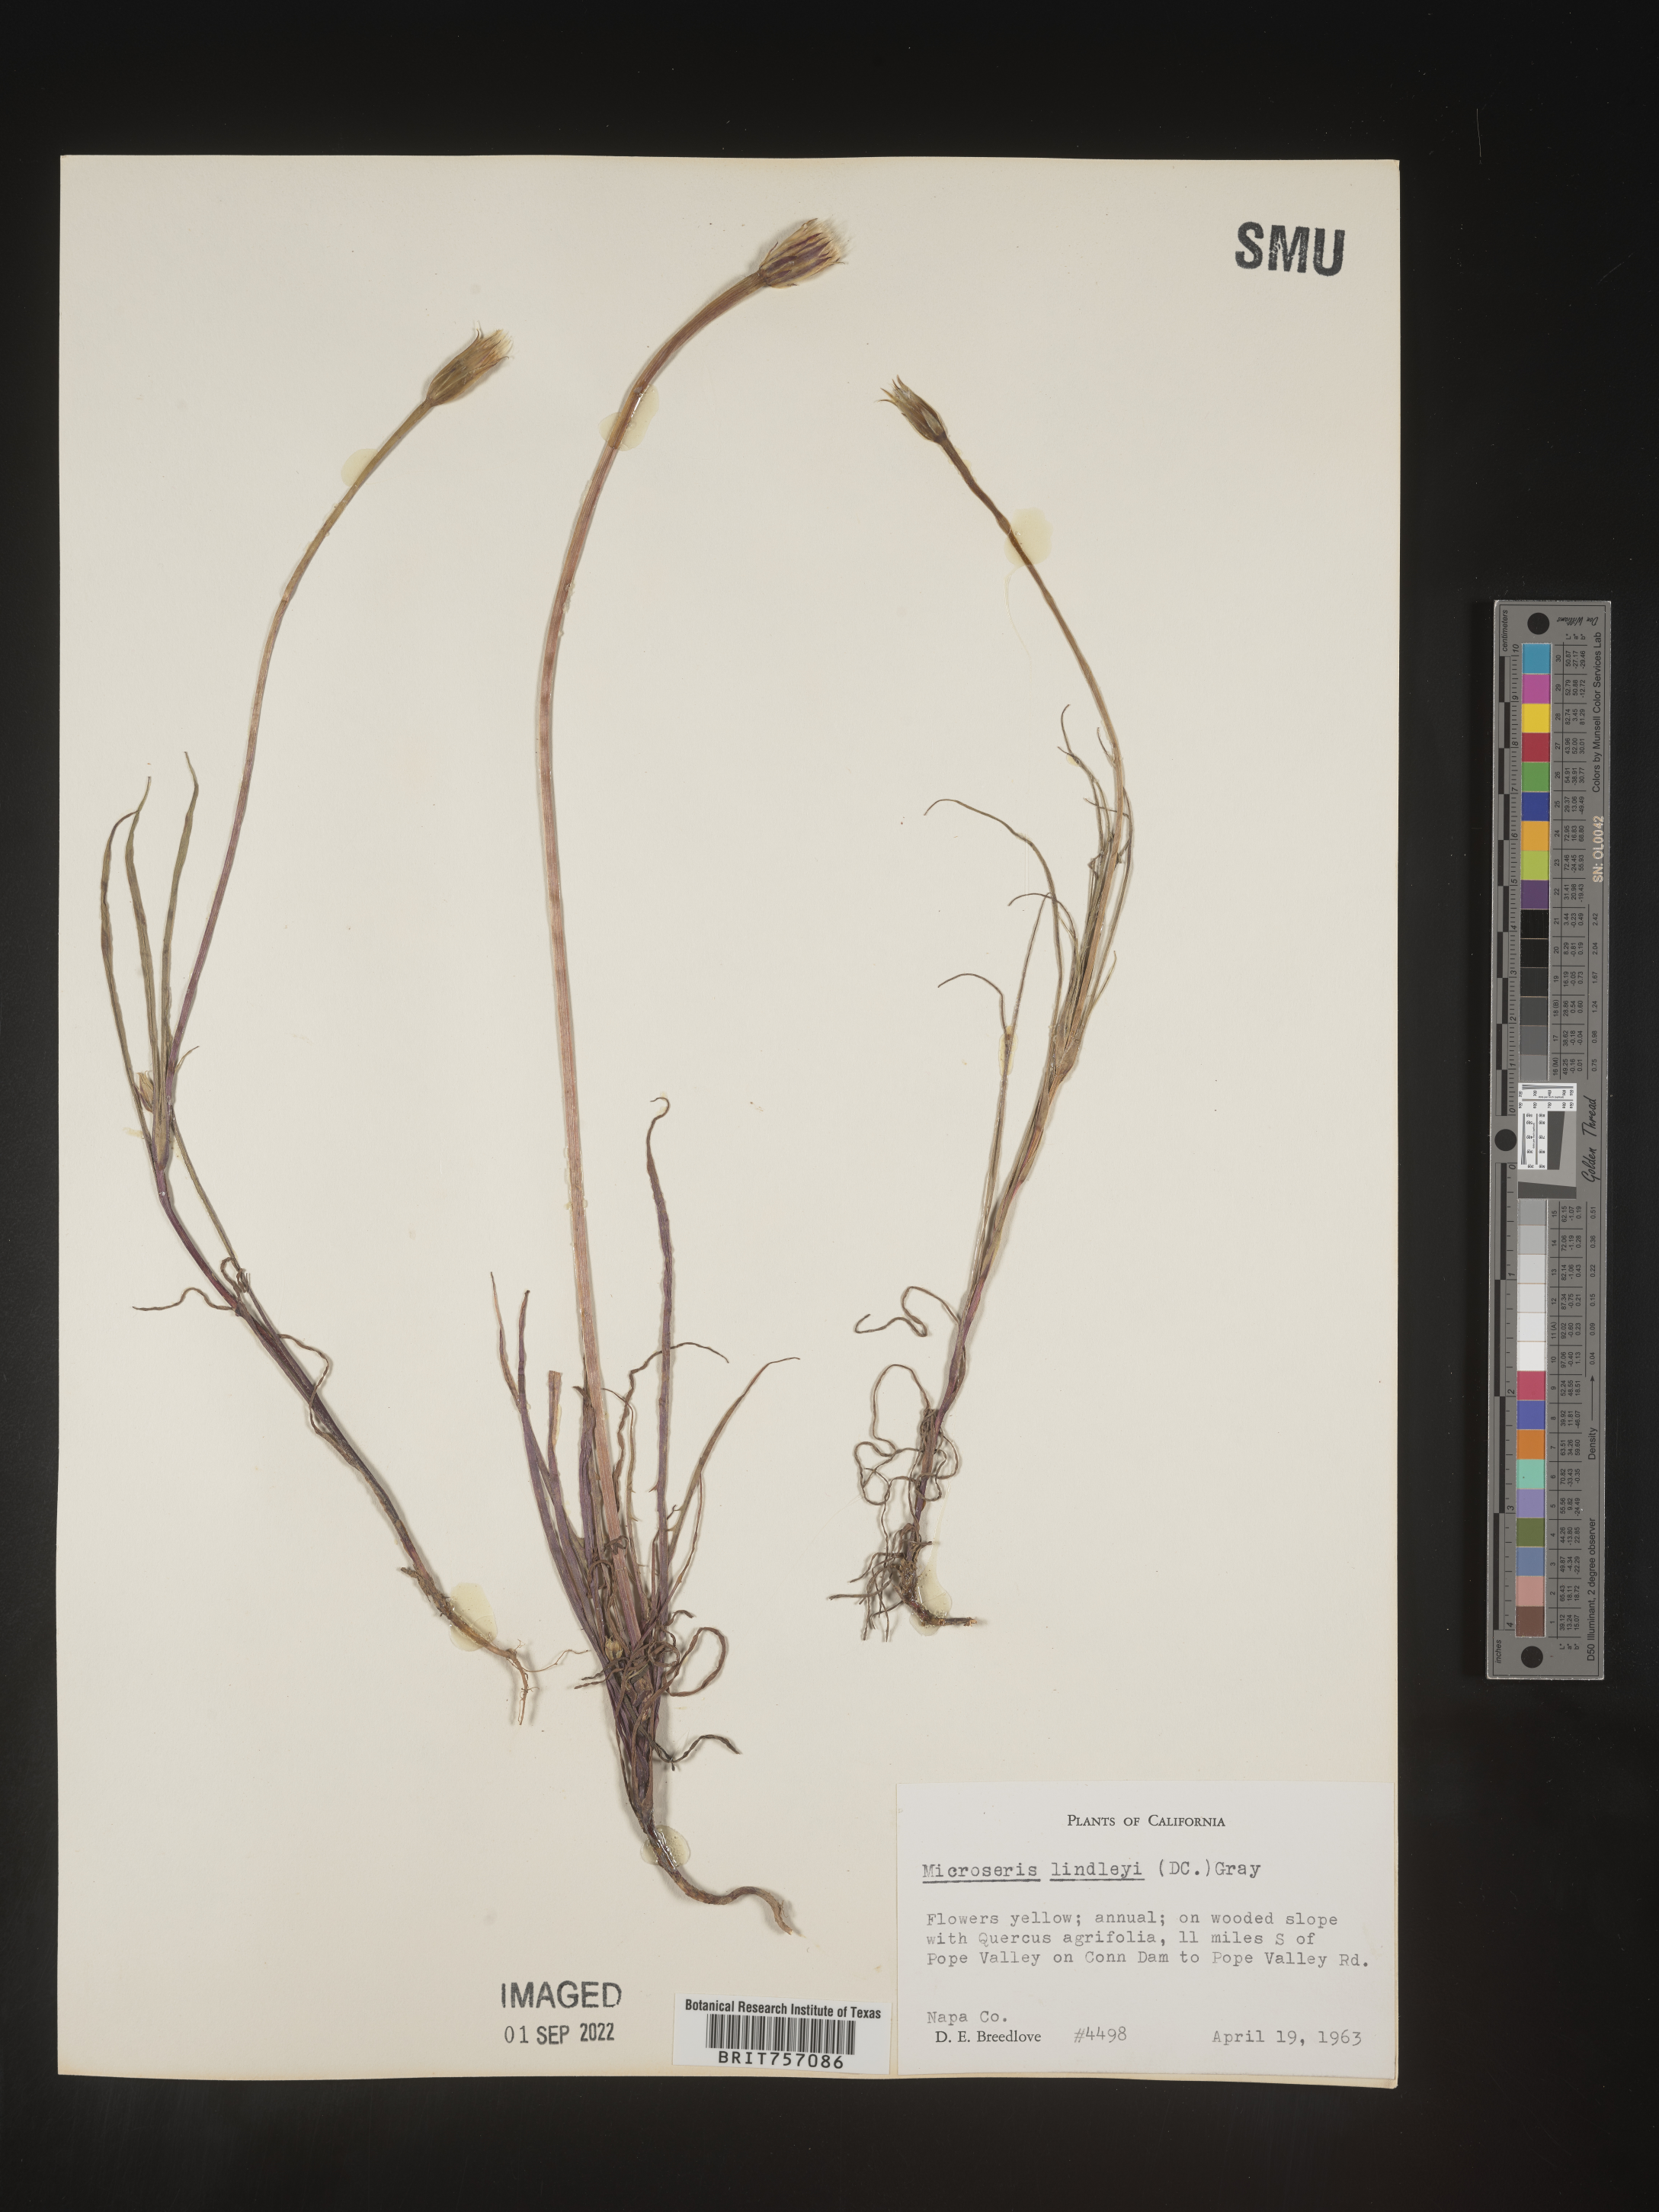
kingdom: Plantae
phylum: Tracheophyta
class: Magnoliopsida
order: Asterales
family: Asteraceae
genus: Microseris
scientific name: Microseris
